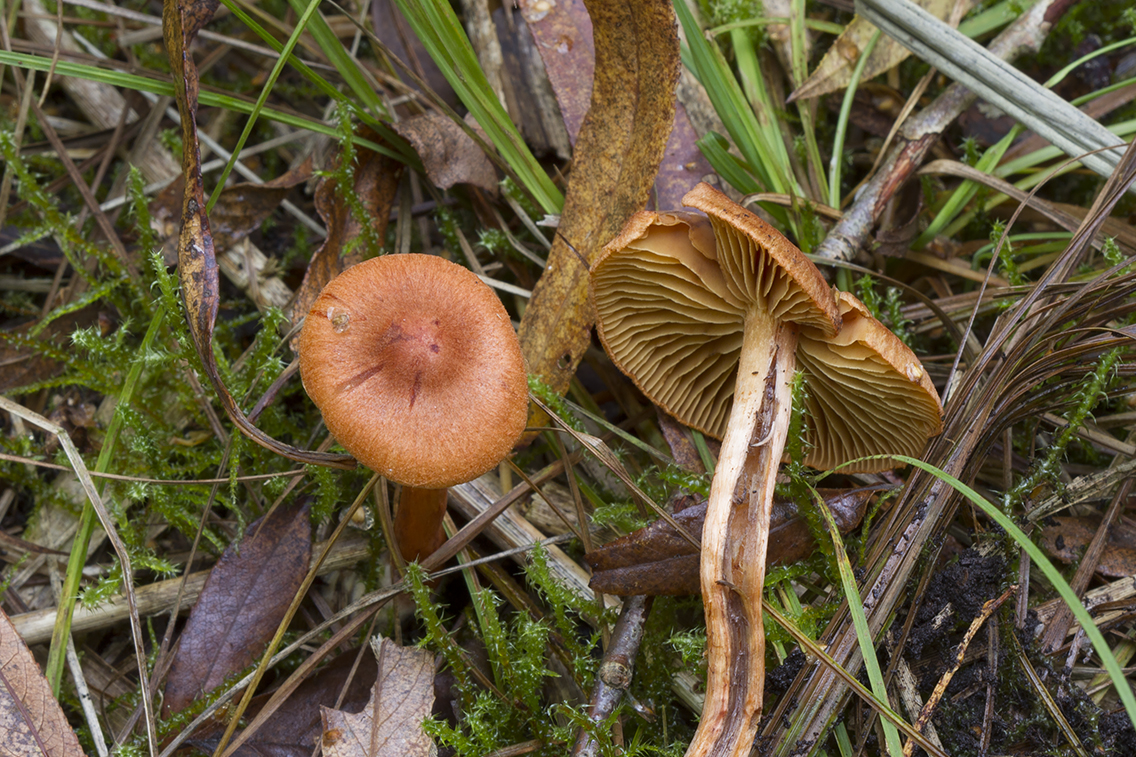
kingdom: Fungi
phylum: Basidiomycota
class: Agaricomycetes
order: Agaricales
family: Cortinariaceae
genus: Cortinarius
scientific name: Cortinarius uliginosus
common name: mose-slørhat
